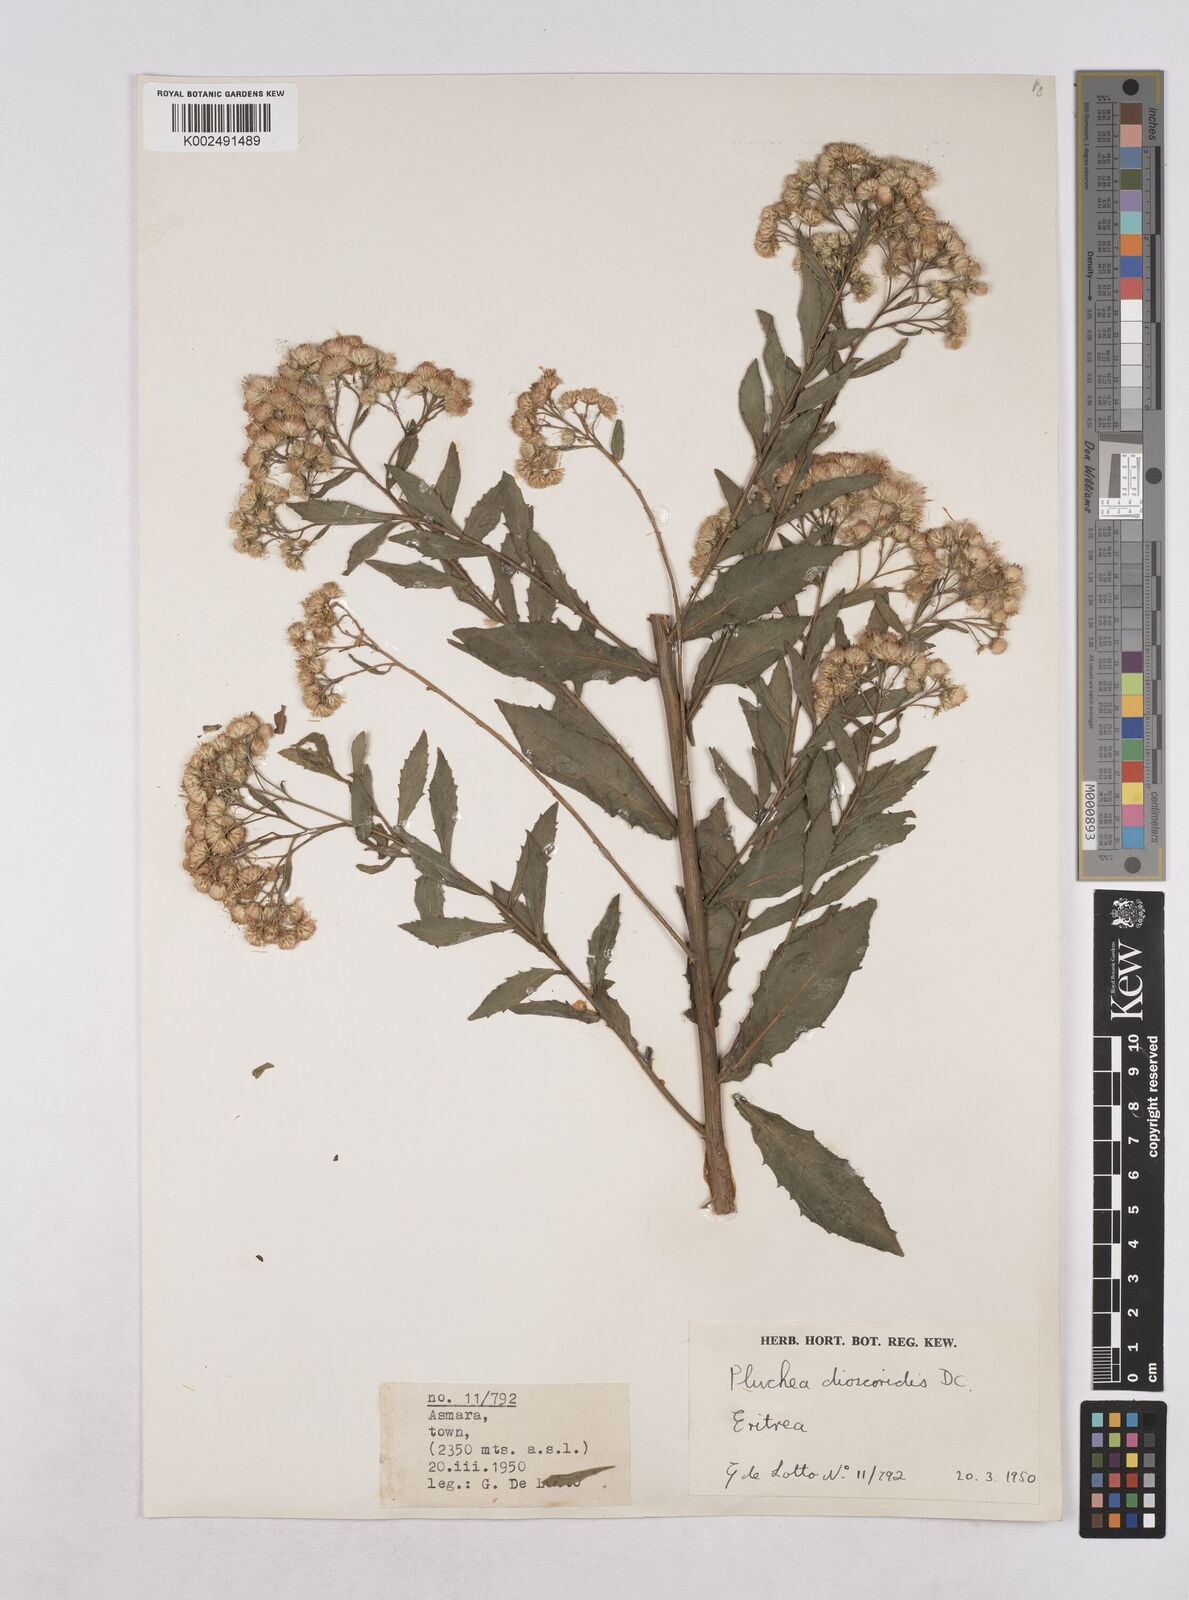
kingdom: Plantae
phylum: Tracheophyta
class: Magnoliopsida
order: Asterales
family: Asteraceae
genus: Pluchea
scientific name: Pluchea dioscoridis
